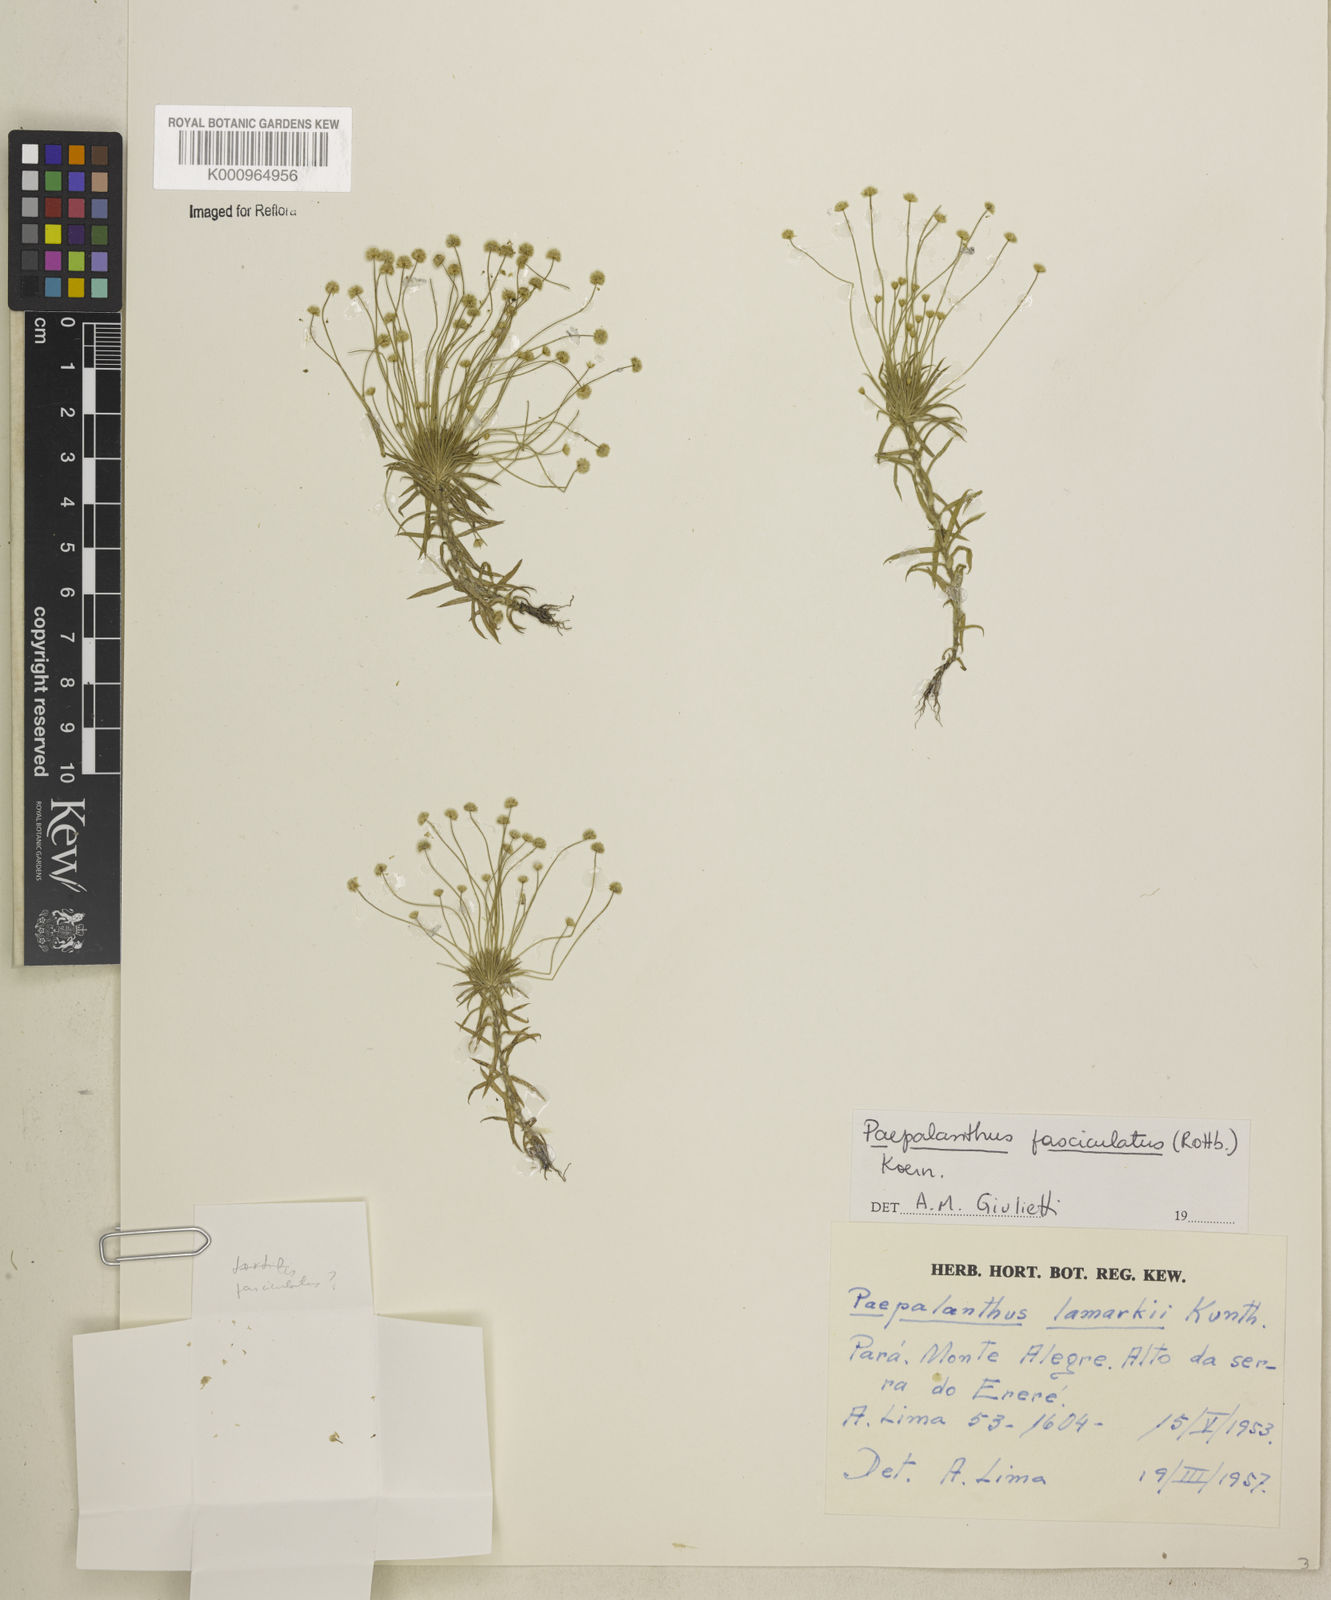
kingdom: Plantae
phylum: Tracheophyta
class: Liliopsida
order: Poales
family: Eriocaulaceae
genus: Paepalanthus
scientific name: Paepalanthus fasciculatus
